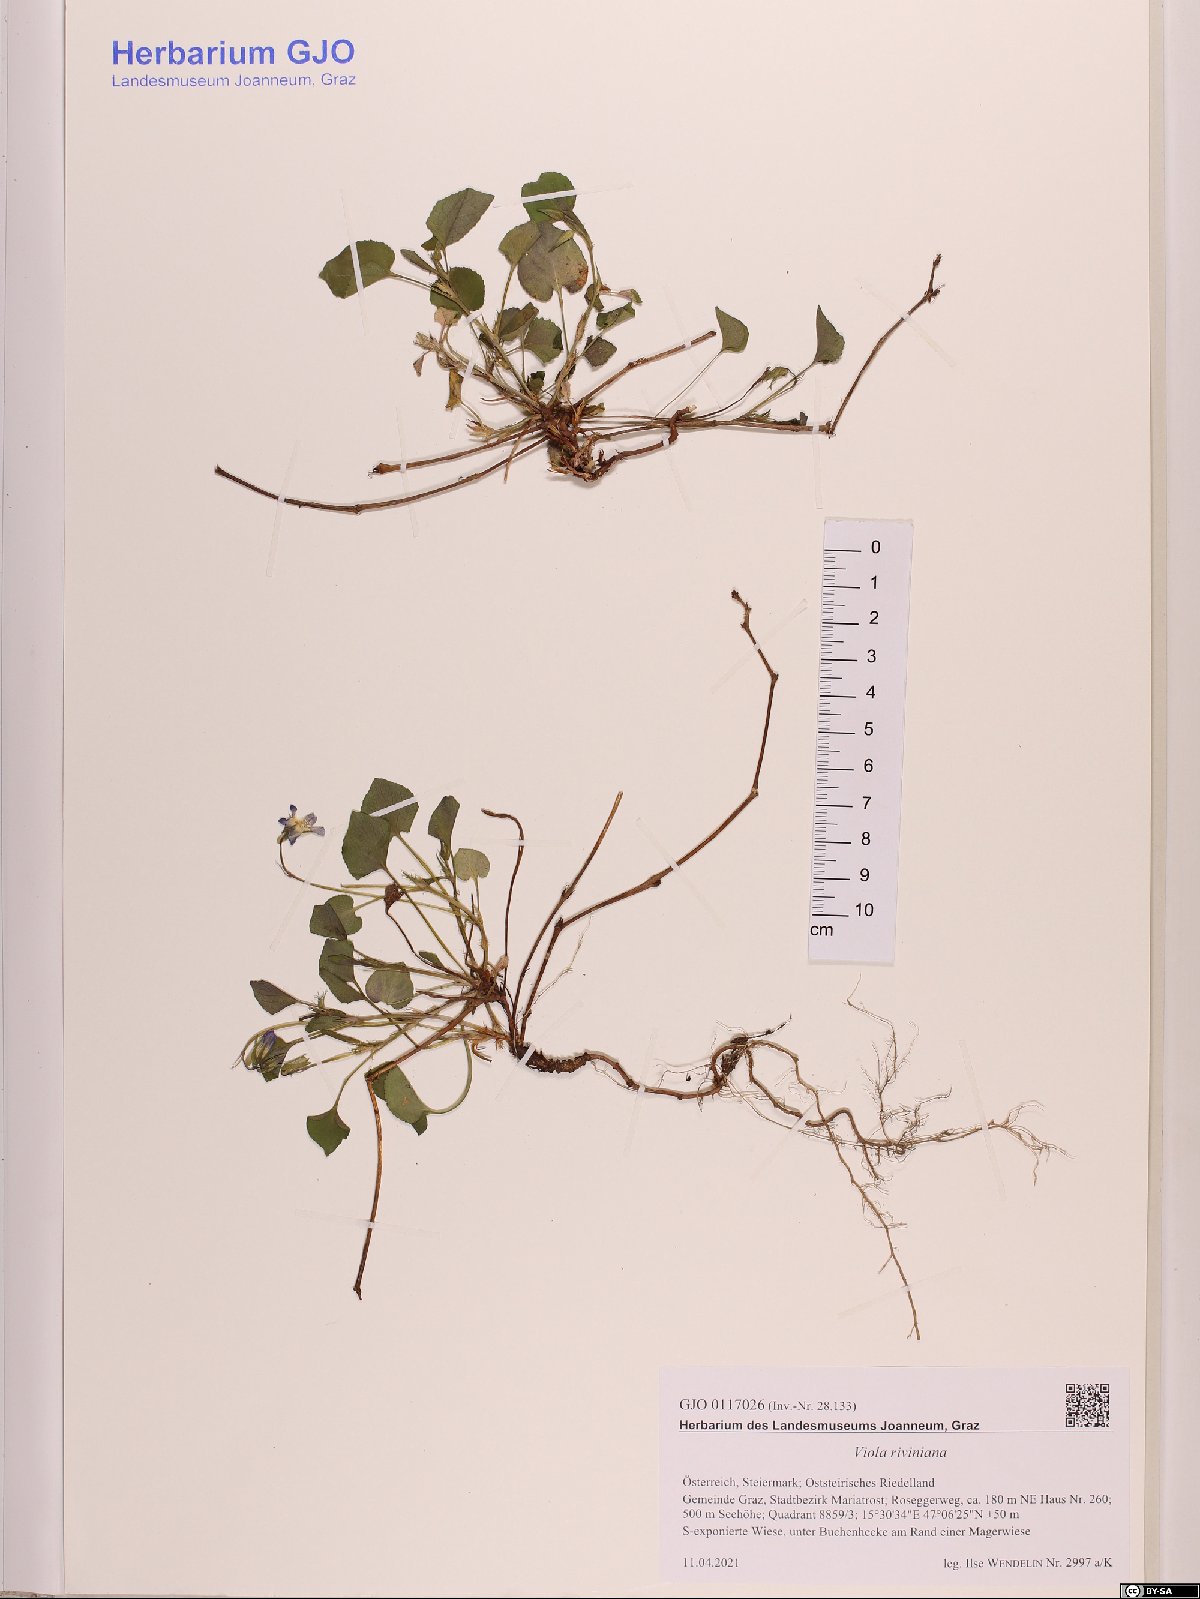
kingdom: Plantae
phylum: Tracheophyta
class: Magnoliopsida
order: Malpighiales
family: Violaceae
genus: Viola
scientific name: Viola riviniana
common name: Common dog-violet
